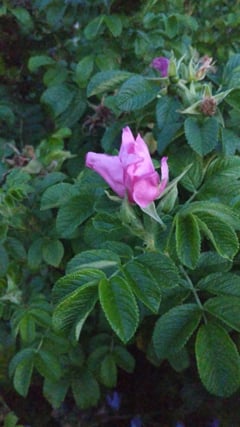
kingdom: Animalia
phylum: Arthropoda
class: Insecta
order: Orthoptera
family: Gryllidae
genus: Gryllus
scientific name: Gryllus
